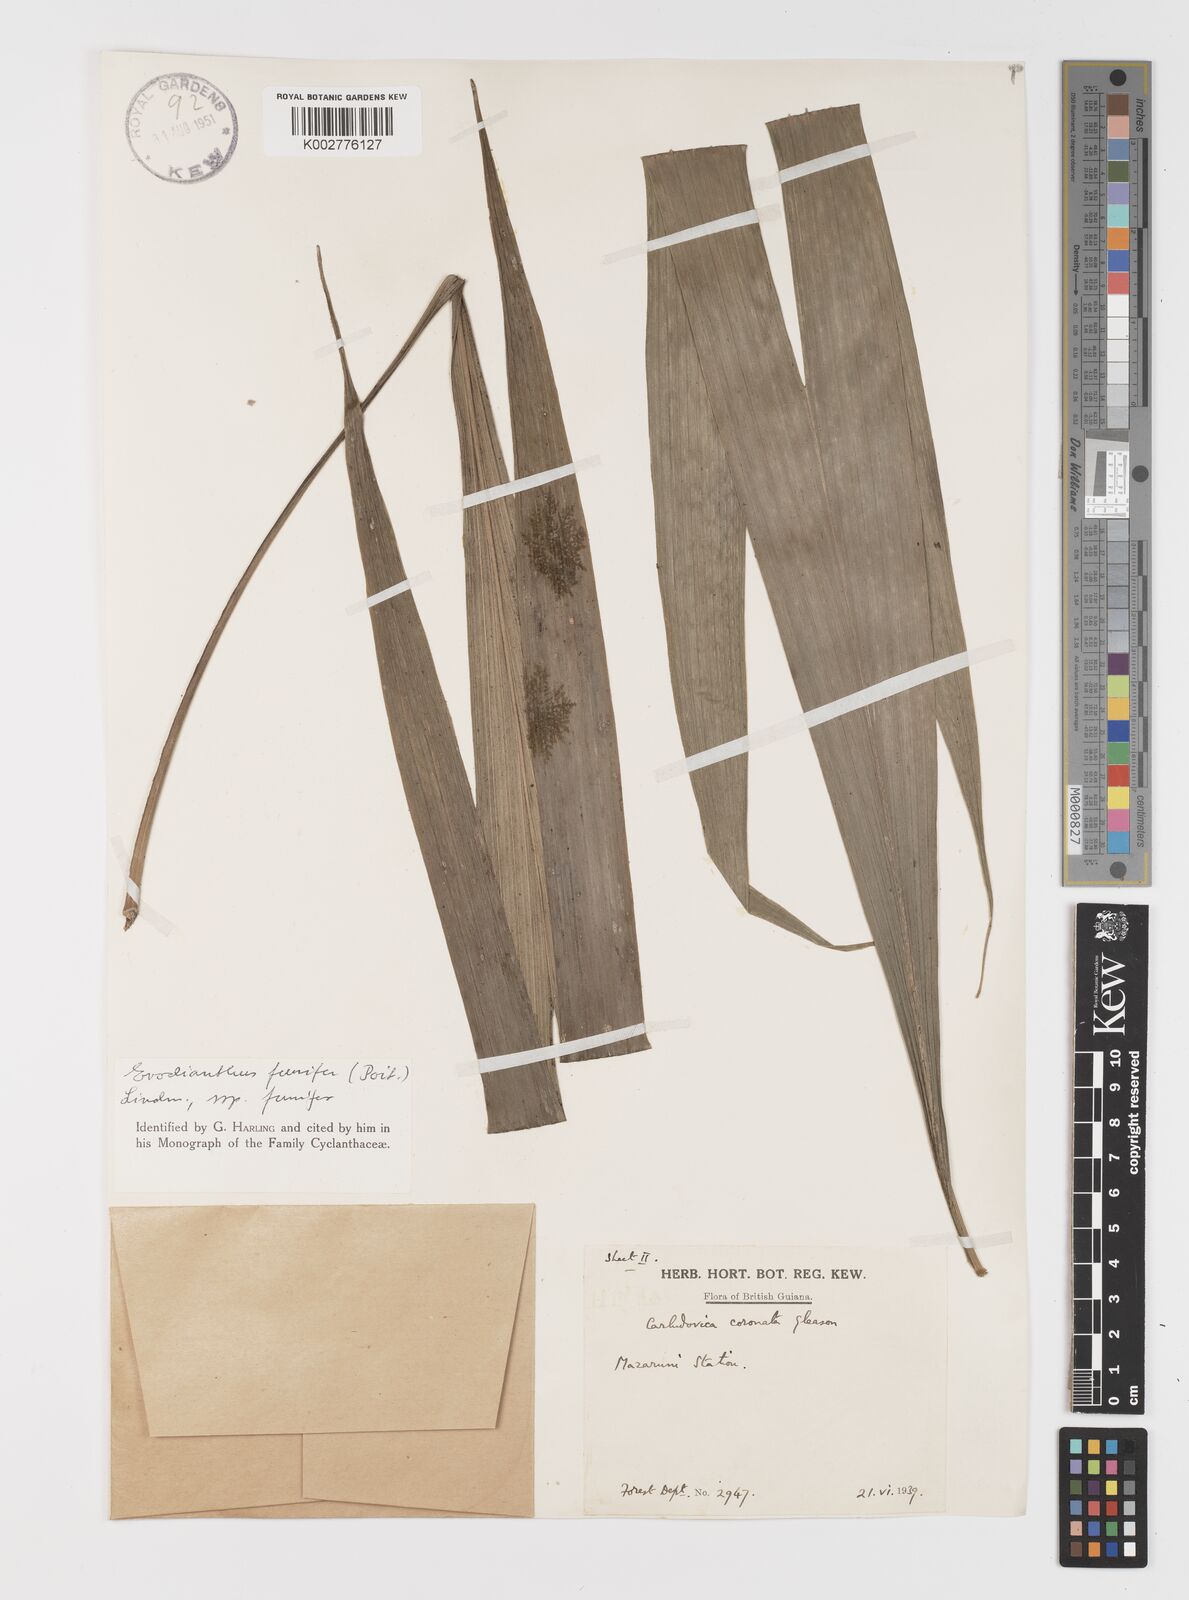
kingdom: Plantae
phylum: Tracheophyta
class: Liliopsida
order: Pandanales
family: Cyclanthaceae
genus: Evodianthus
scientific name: Evodianthus funifer
